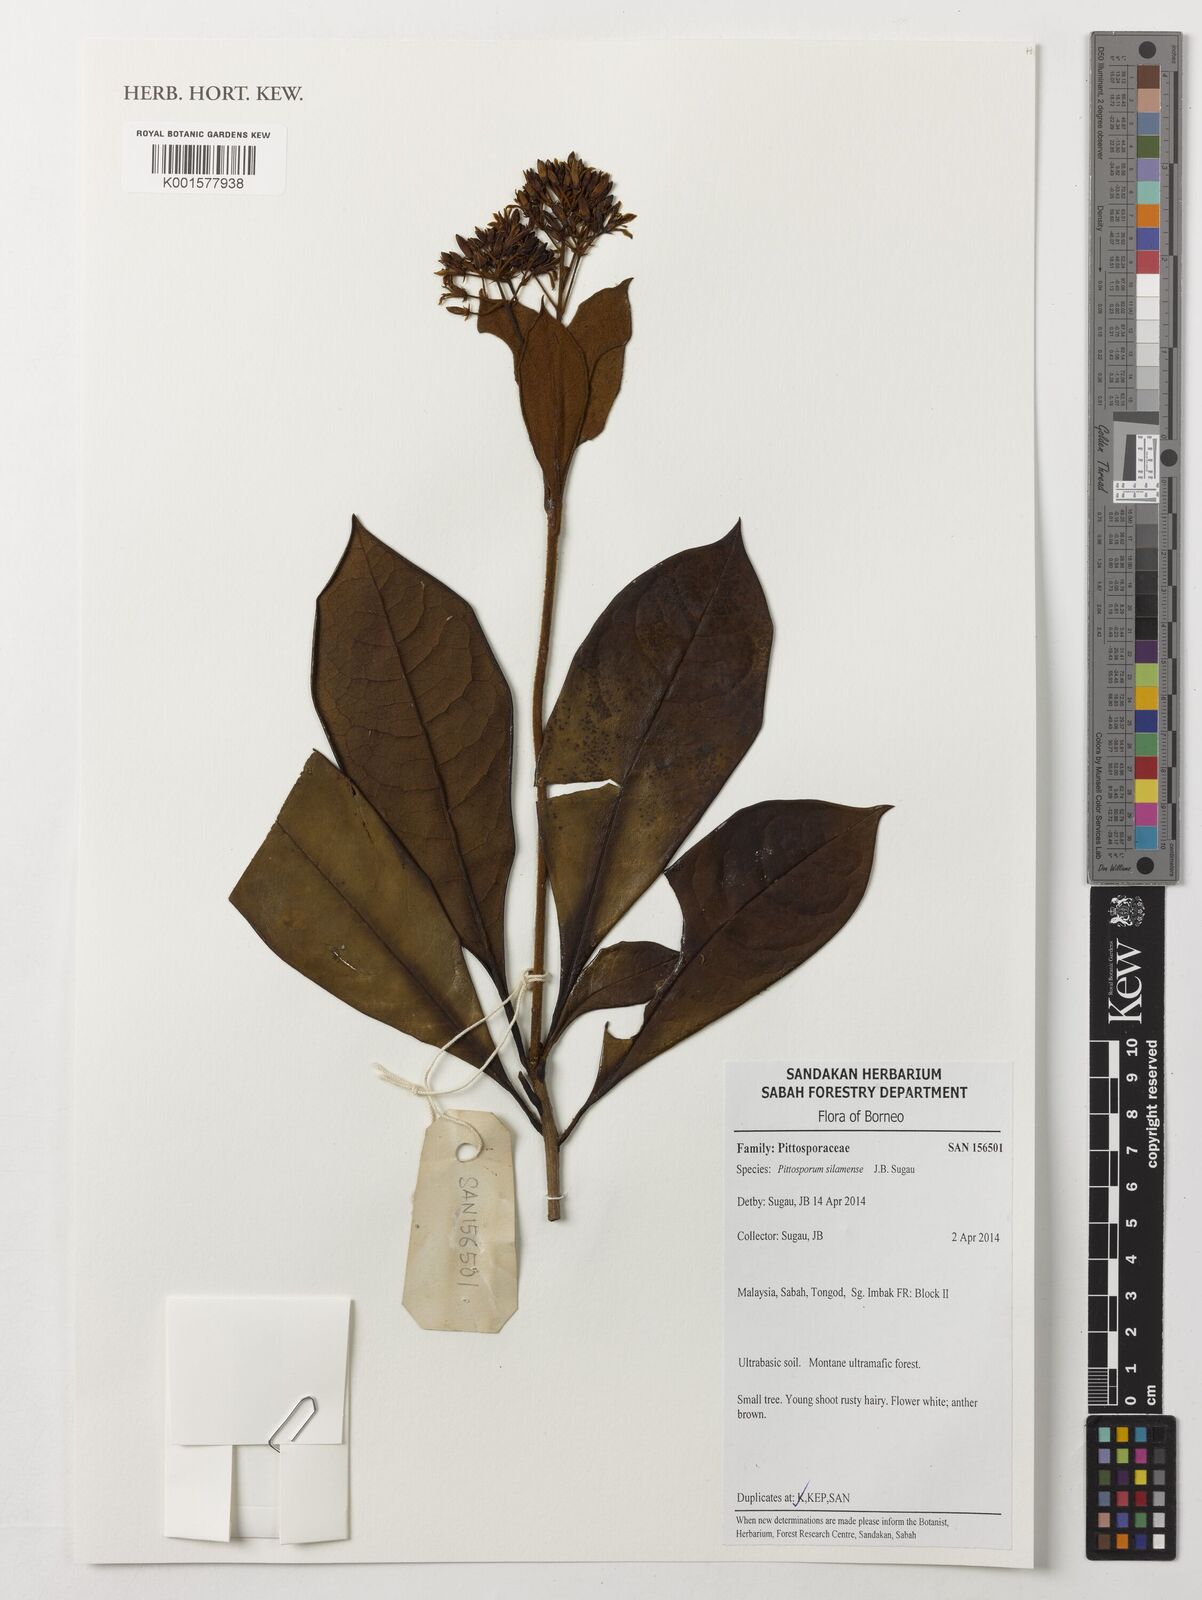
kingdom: Plantae
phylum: Tracheophyta
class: Magnoliopsida
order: Apiales
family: Pittosporaceae
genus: Pittosporum
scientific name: Pittosporum silamense
